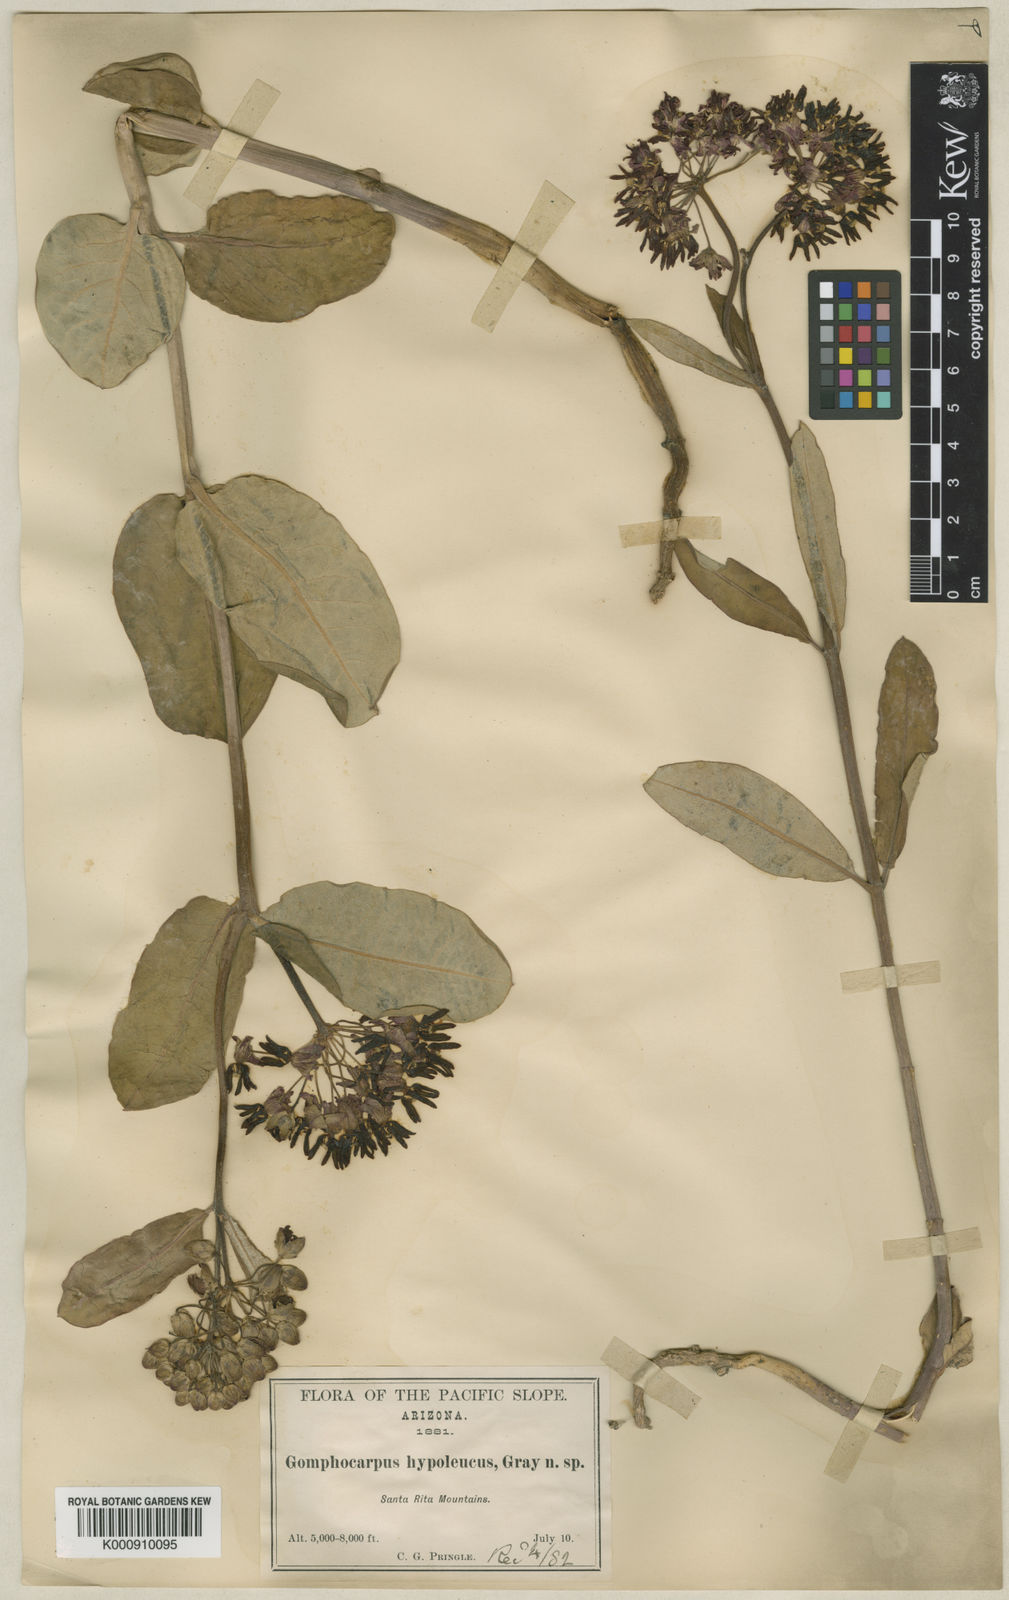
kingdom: Plantae
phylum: Tracheophyta
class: Magnoliopsida
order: Gentianales
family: Apocynaceae
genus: Asclepias
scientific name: Asclepias hypoleuca
